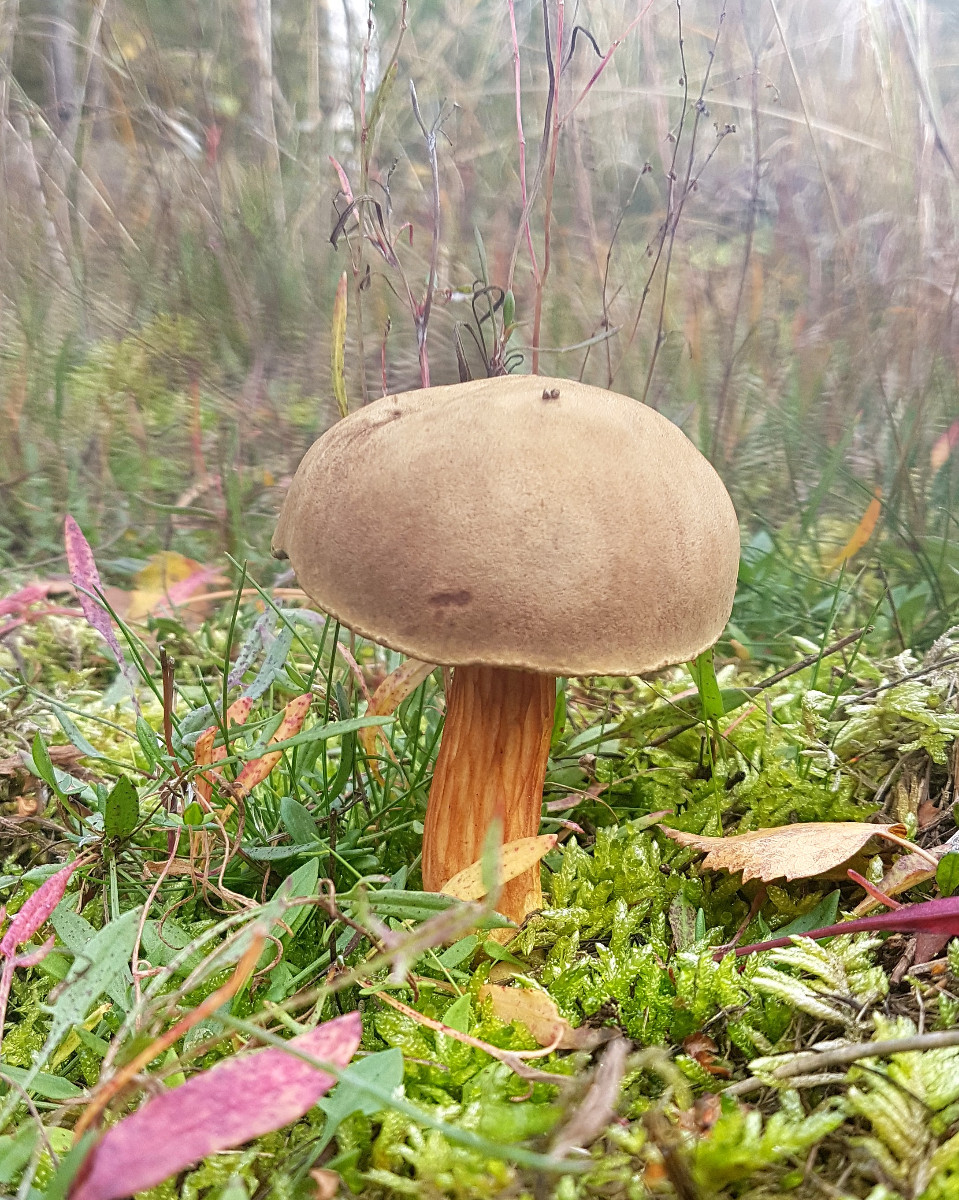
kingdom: Fungi
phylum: Basidiomycota
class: Agaricomycetes
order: Boletales
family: Boletaceae
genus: Xerocomus
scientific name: Xerocomus ferrugineus
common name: vaskeskinds-rørhat
